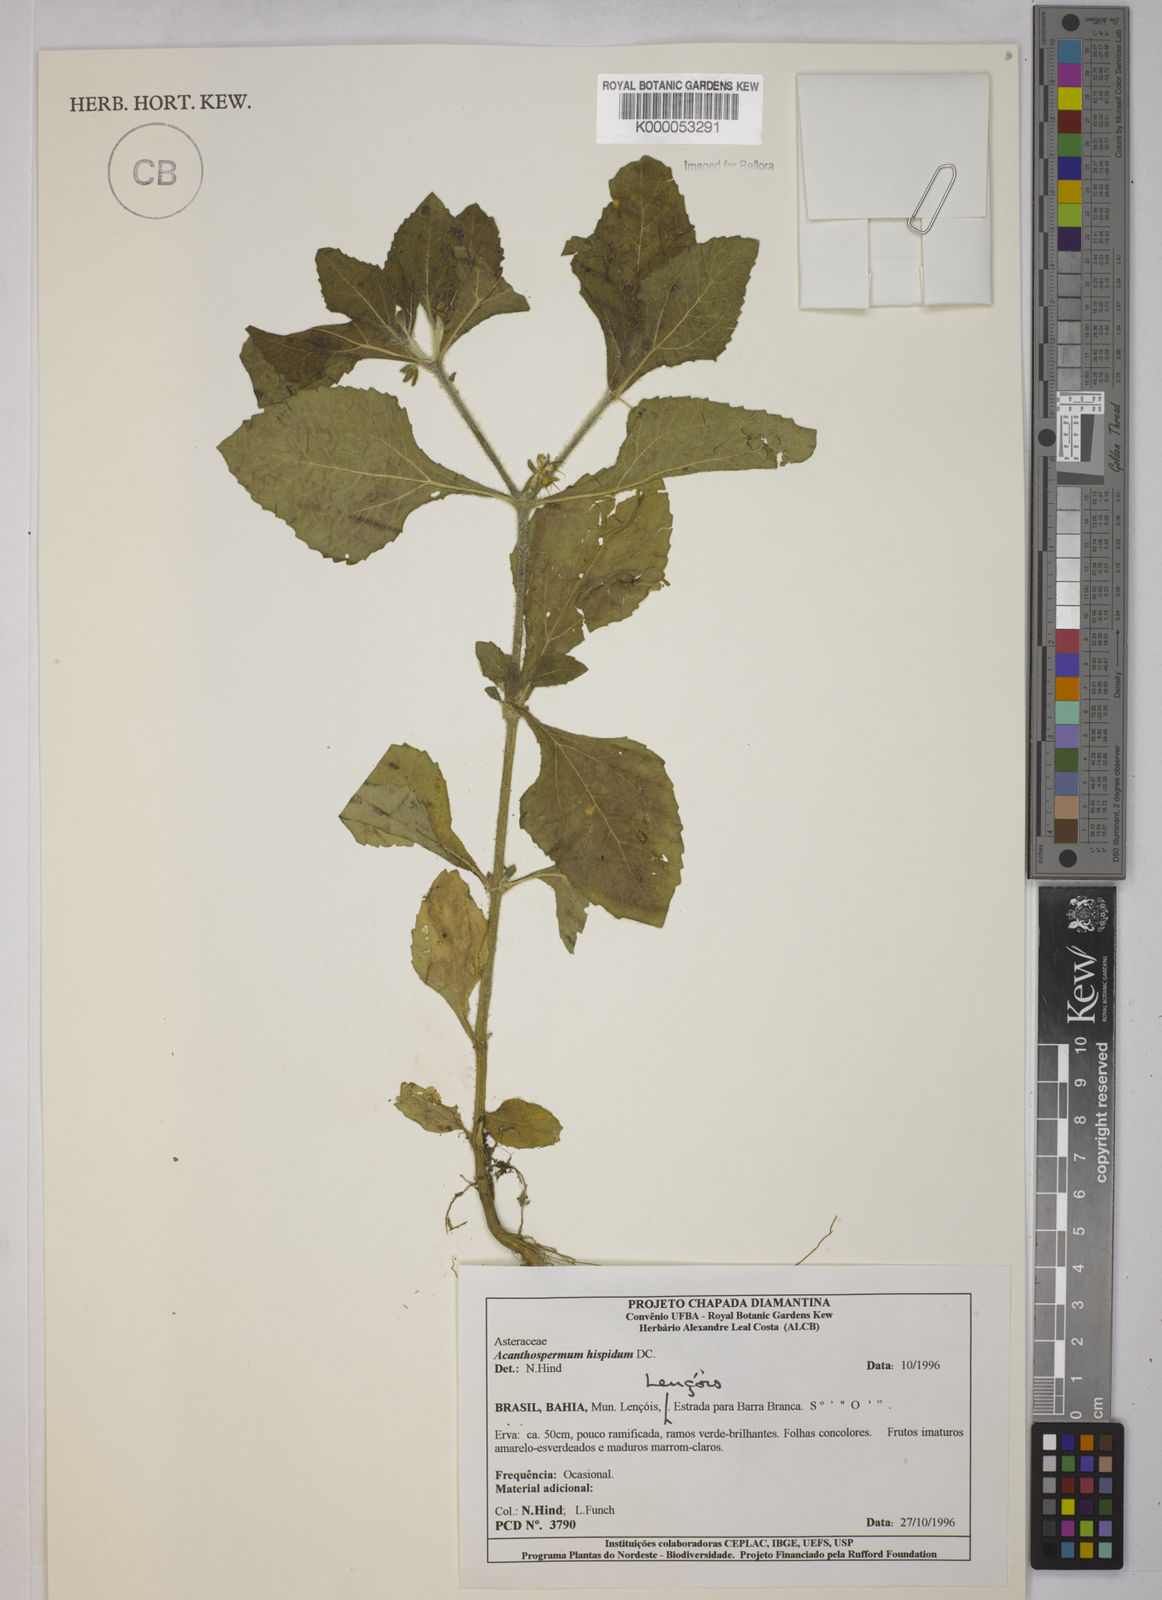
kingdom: Plantae
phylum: Tracheophyta
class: Magnoliopsida
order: Asterales
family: Asteraceae
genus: Acanthospermum
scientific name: Acanthospermum hispidum
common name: Hispid starbur
